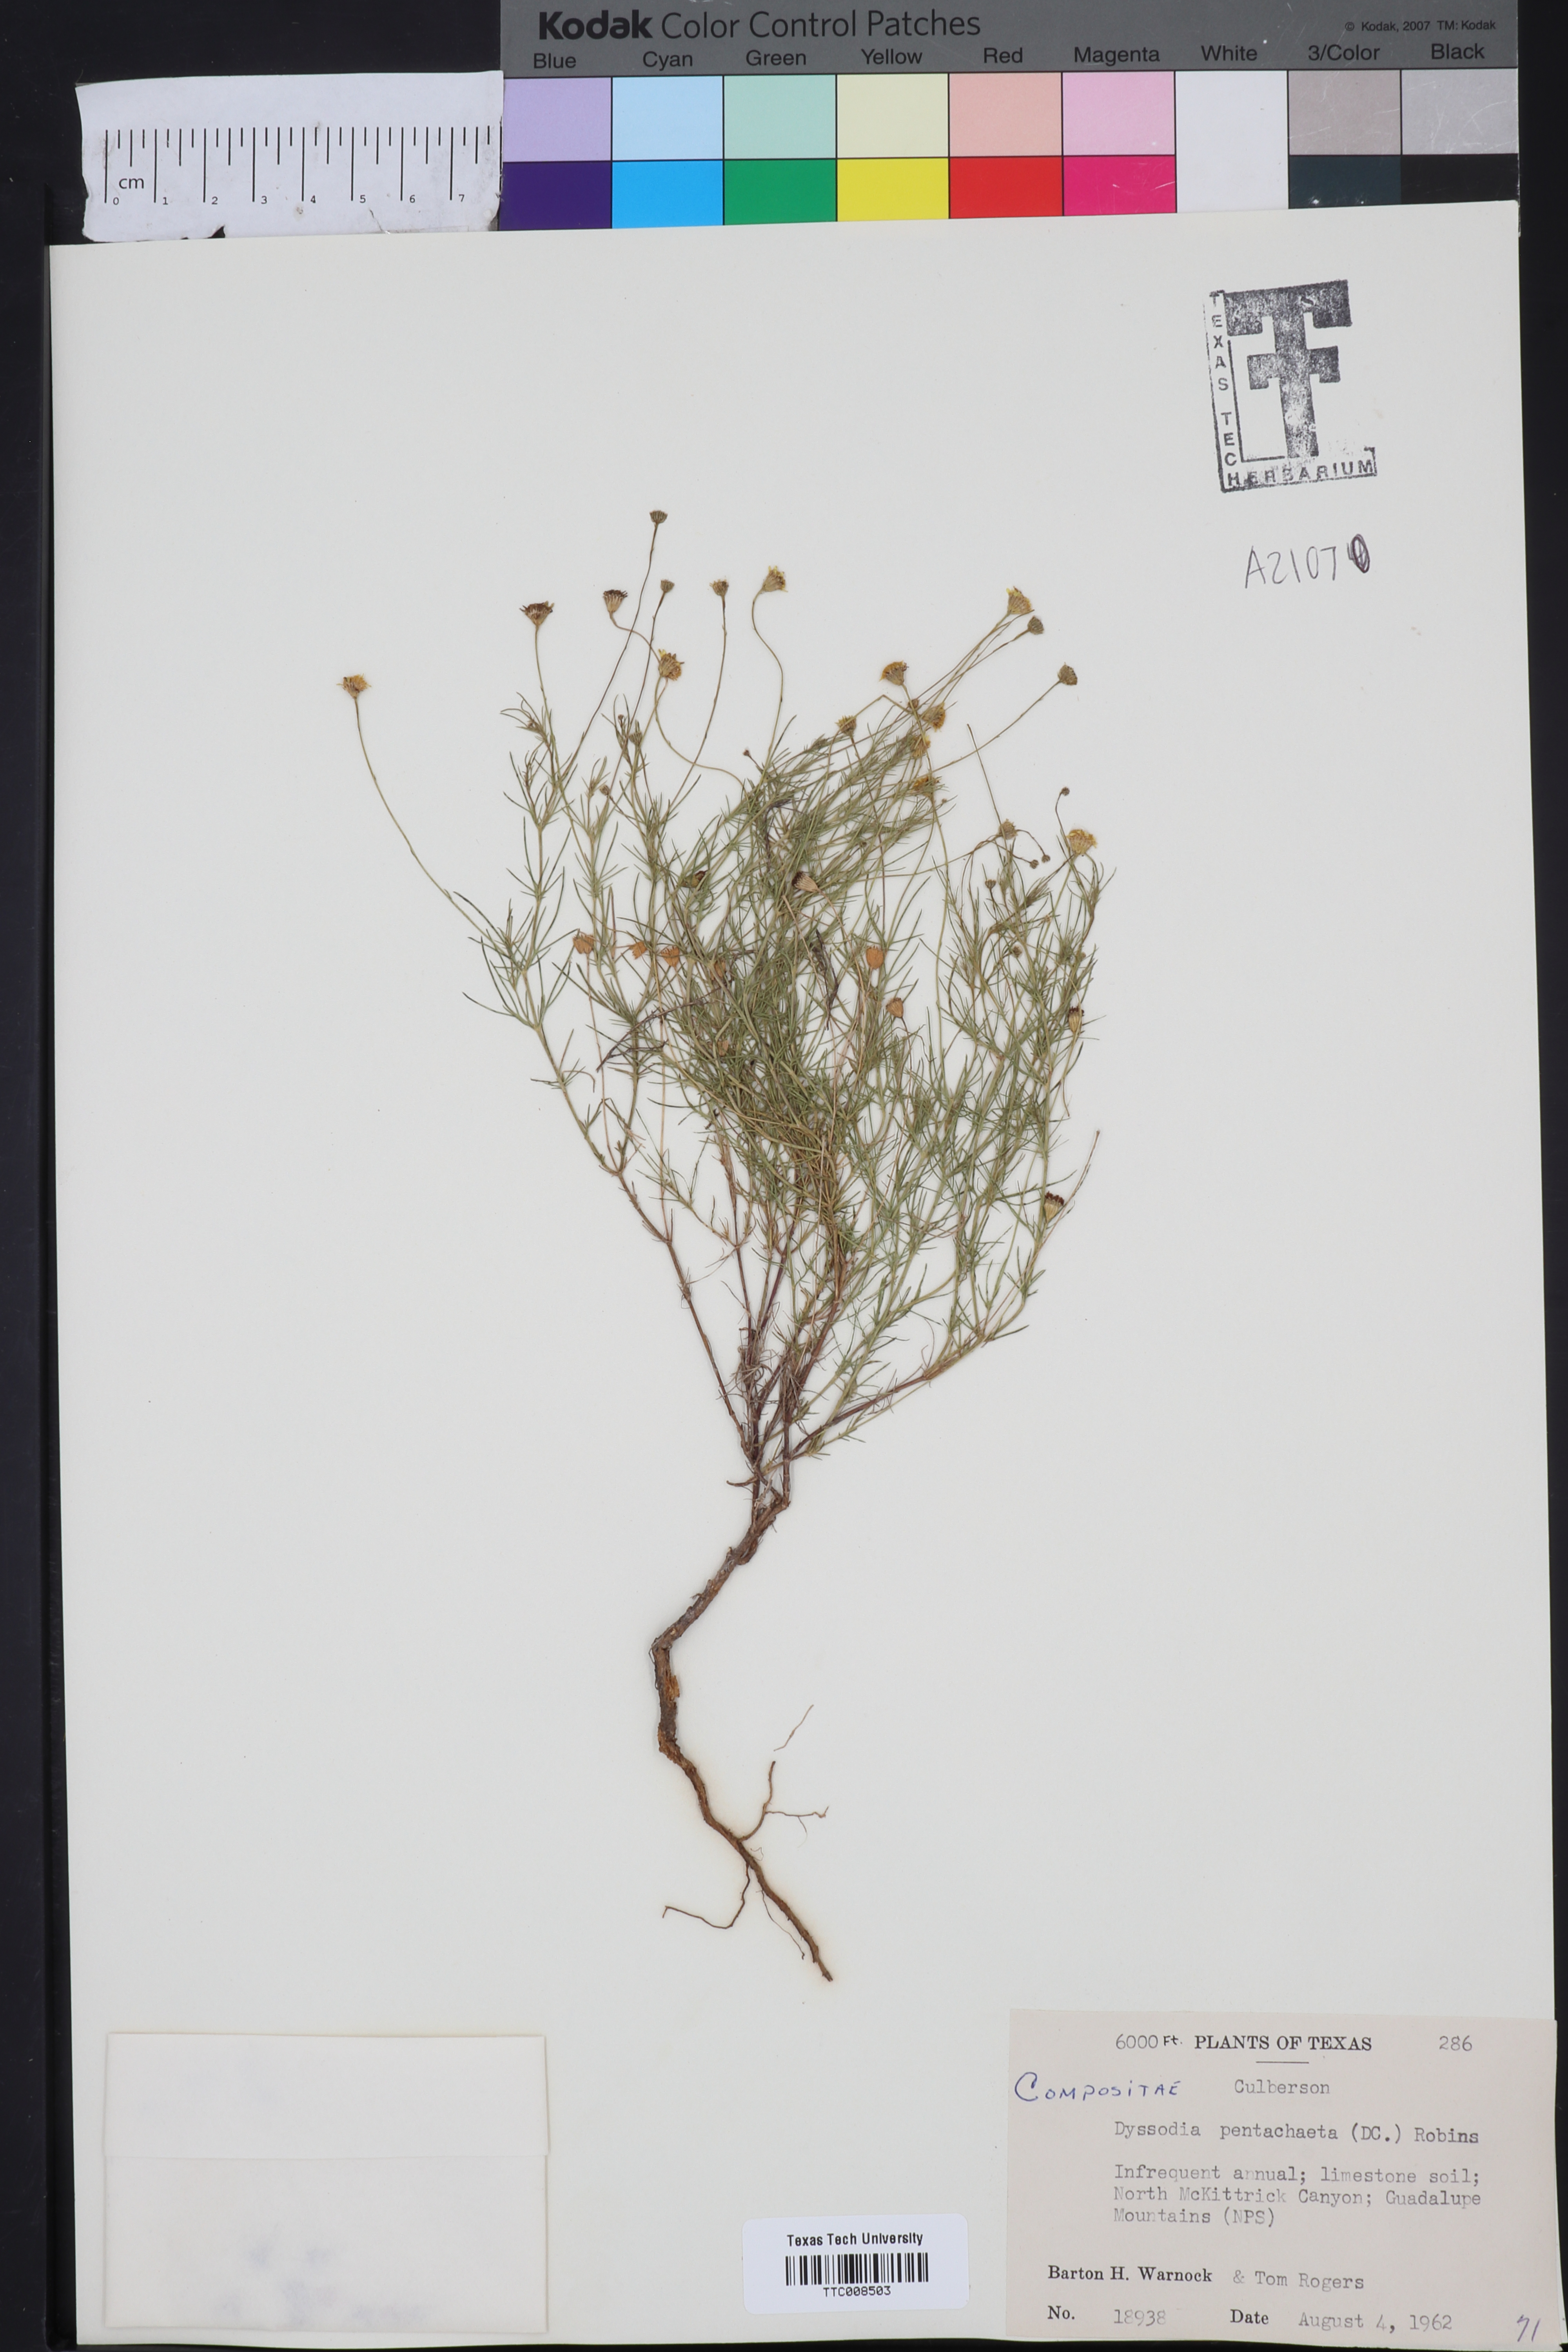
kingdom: Plantae
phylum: Tracheophyta
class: Magnoliopsida
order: Asterales
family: Asteraceae
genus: Thymophylla
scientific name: Thymophylla pentachaeta
